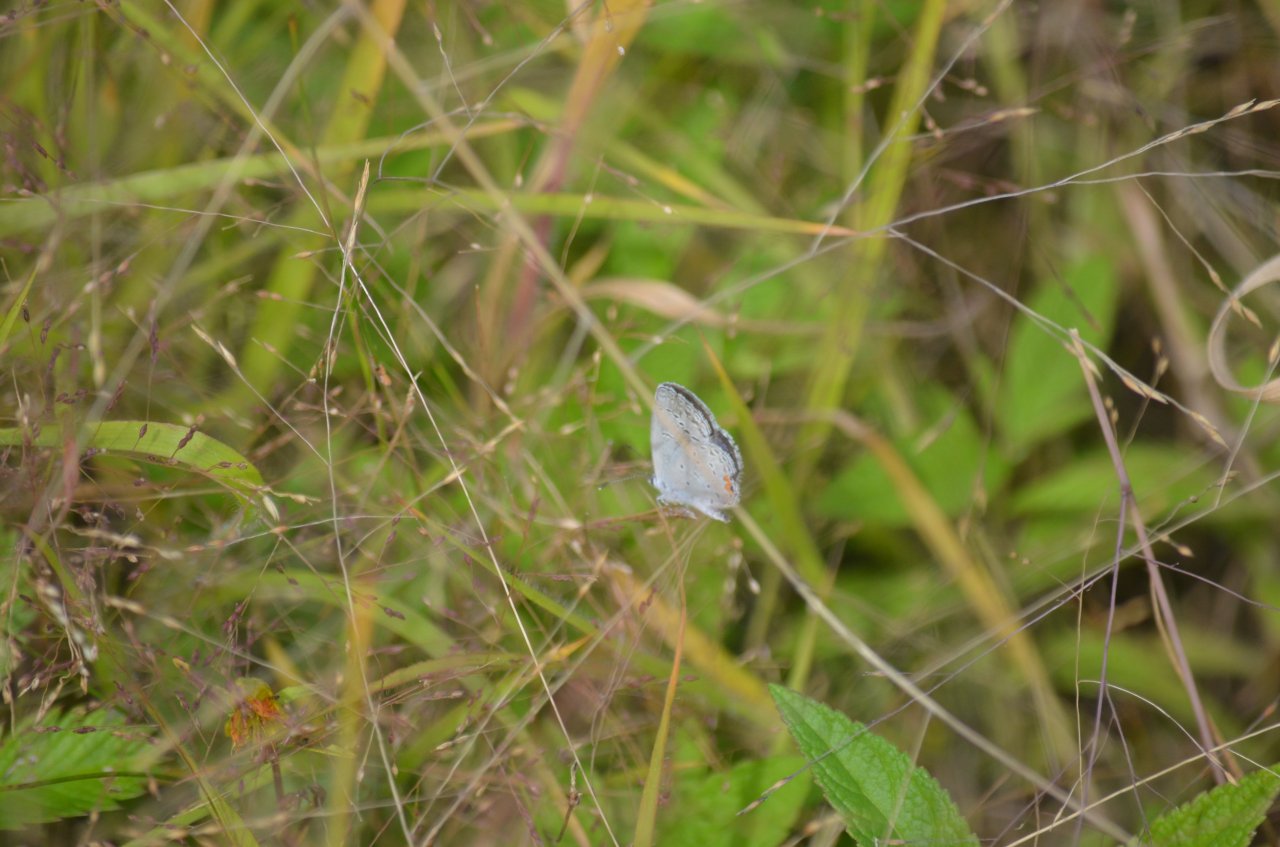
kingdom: Animalia
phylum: Arthropoda
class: Insecta
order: Lepidoptera
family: Lycaenidae
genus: Elkalyce
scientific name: Elkalyce comyntas
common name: Eastern Tailed-Blue
